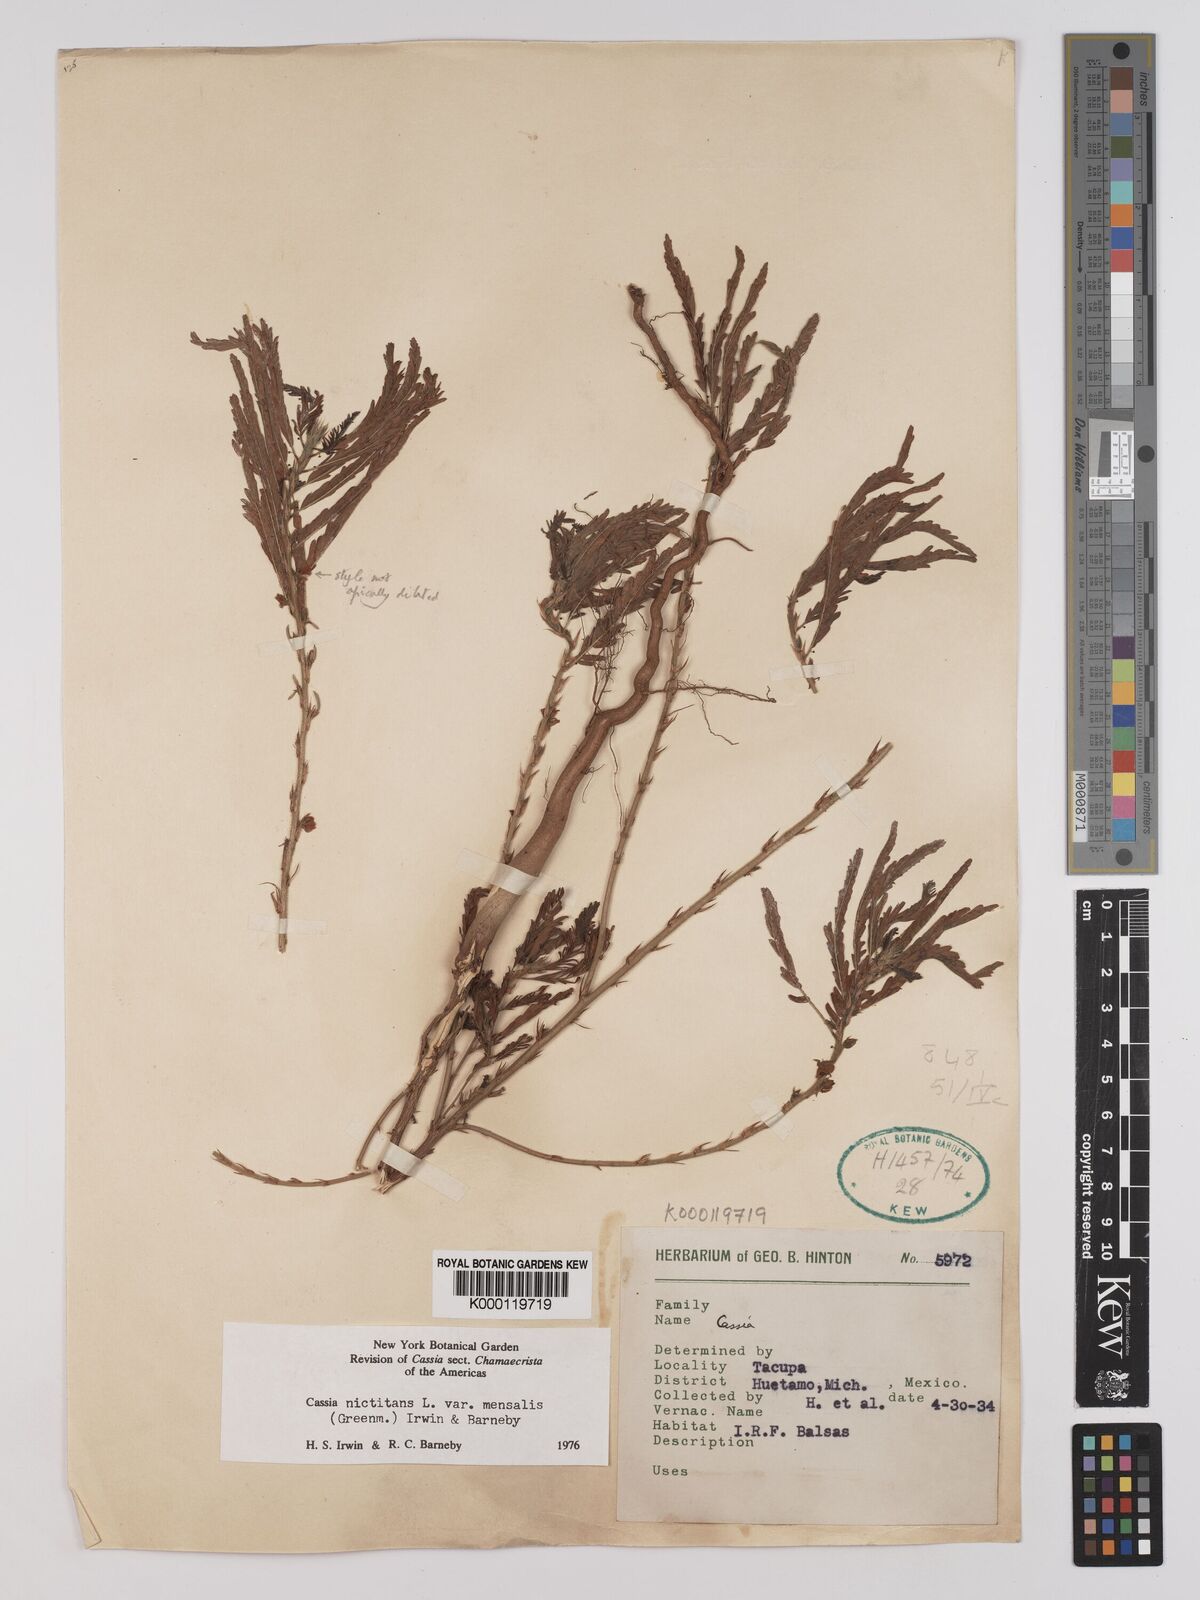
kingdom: Plantae
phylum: Tracheophyta
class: Magnoliopsida
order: Fabales
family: Fabaceae
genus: Chamaecrista
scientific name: Chamaecrista nictitans
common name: Sensitive cassia
